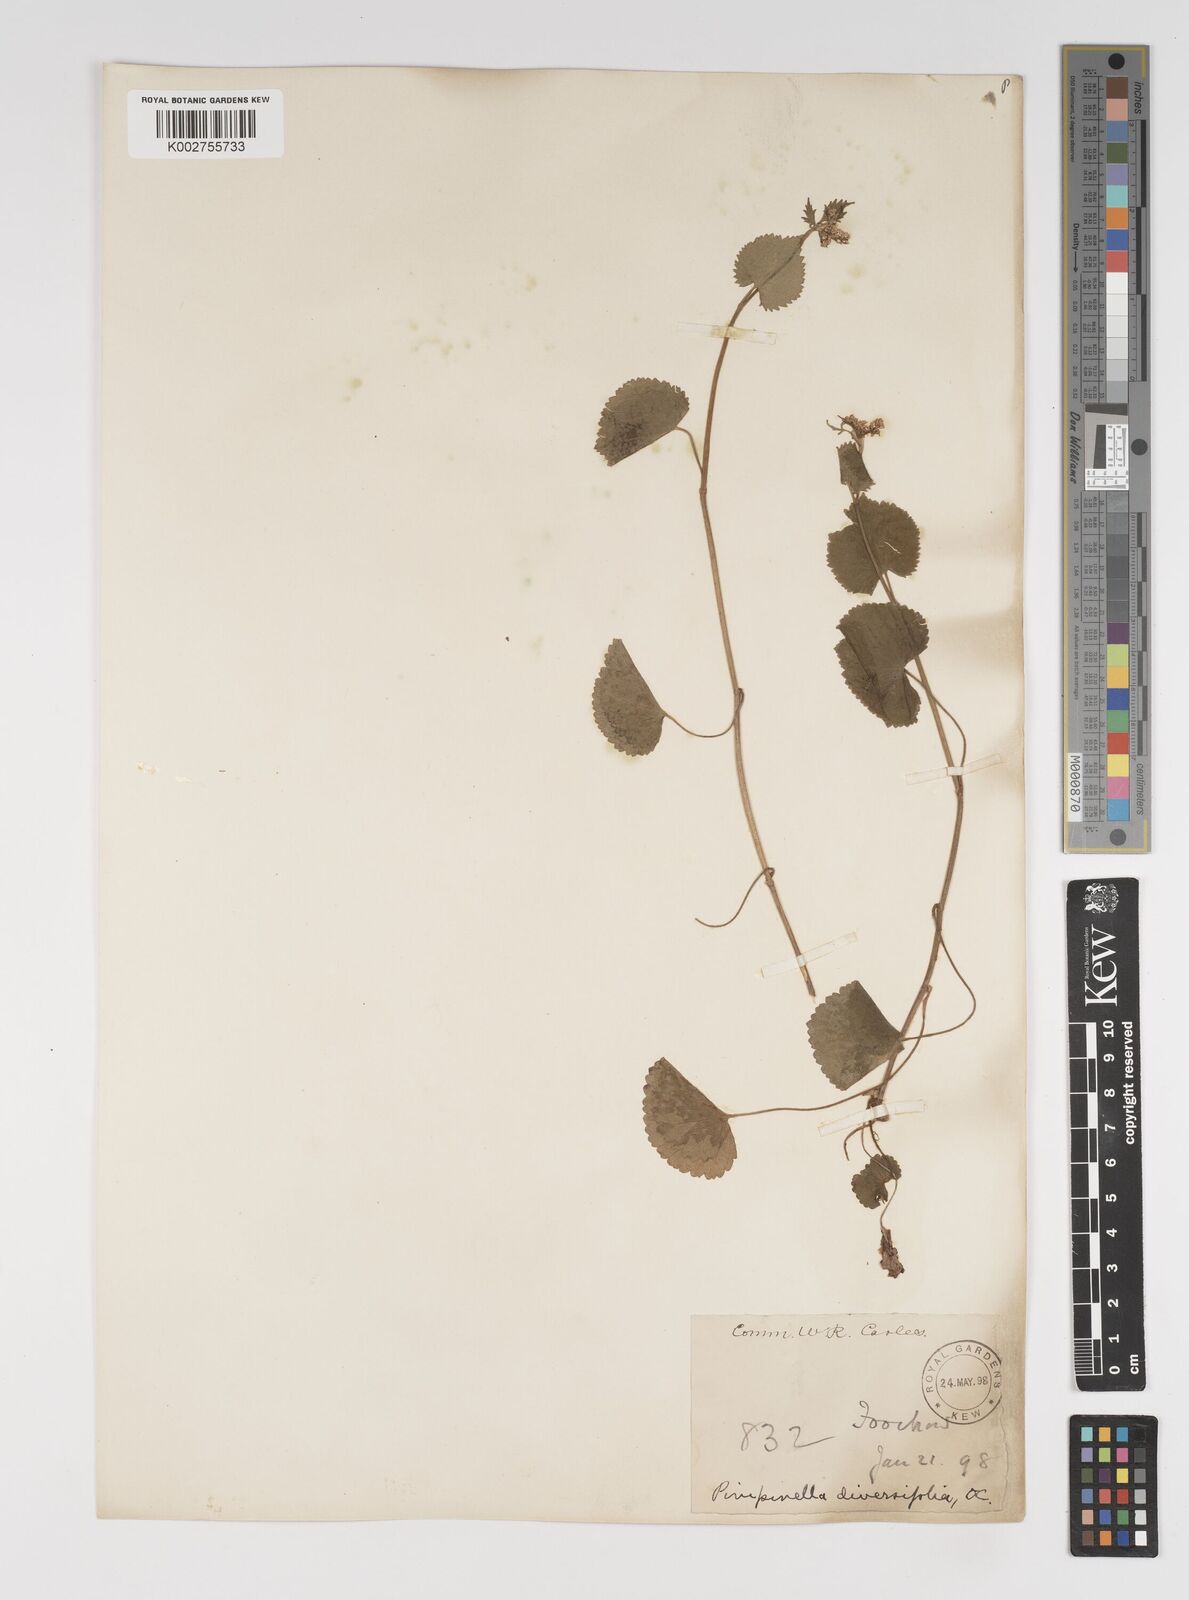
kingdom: Plantae
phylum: Tracheophyta
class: Magnoliopsida
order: Apiales
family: Apiaceae
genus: Pimpinella
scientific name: Pimpinella diversifolia
